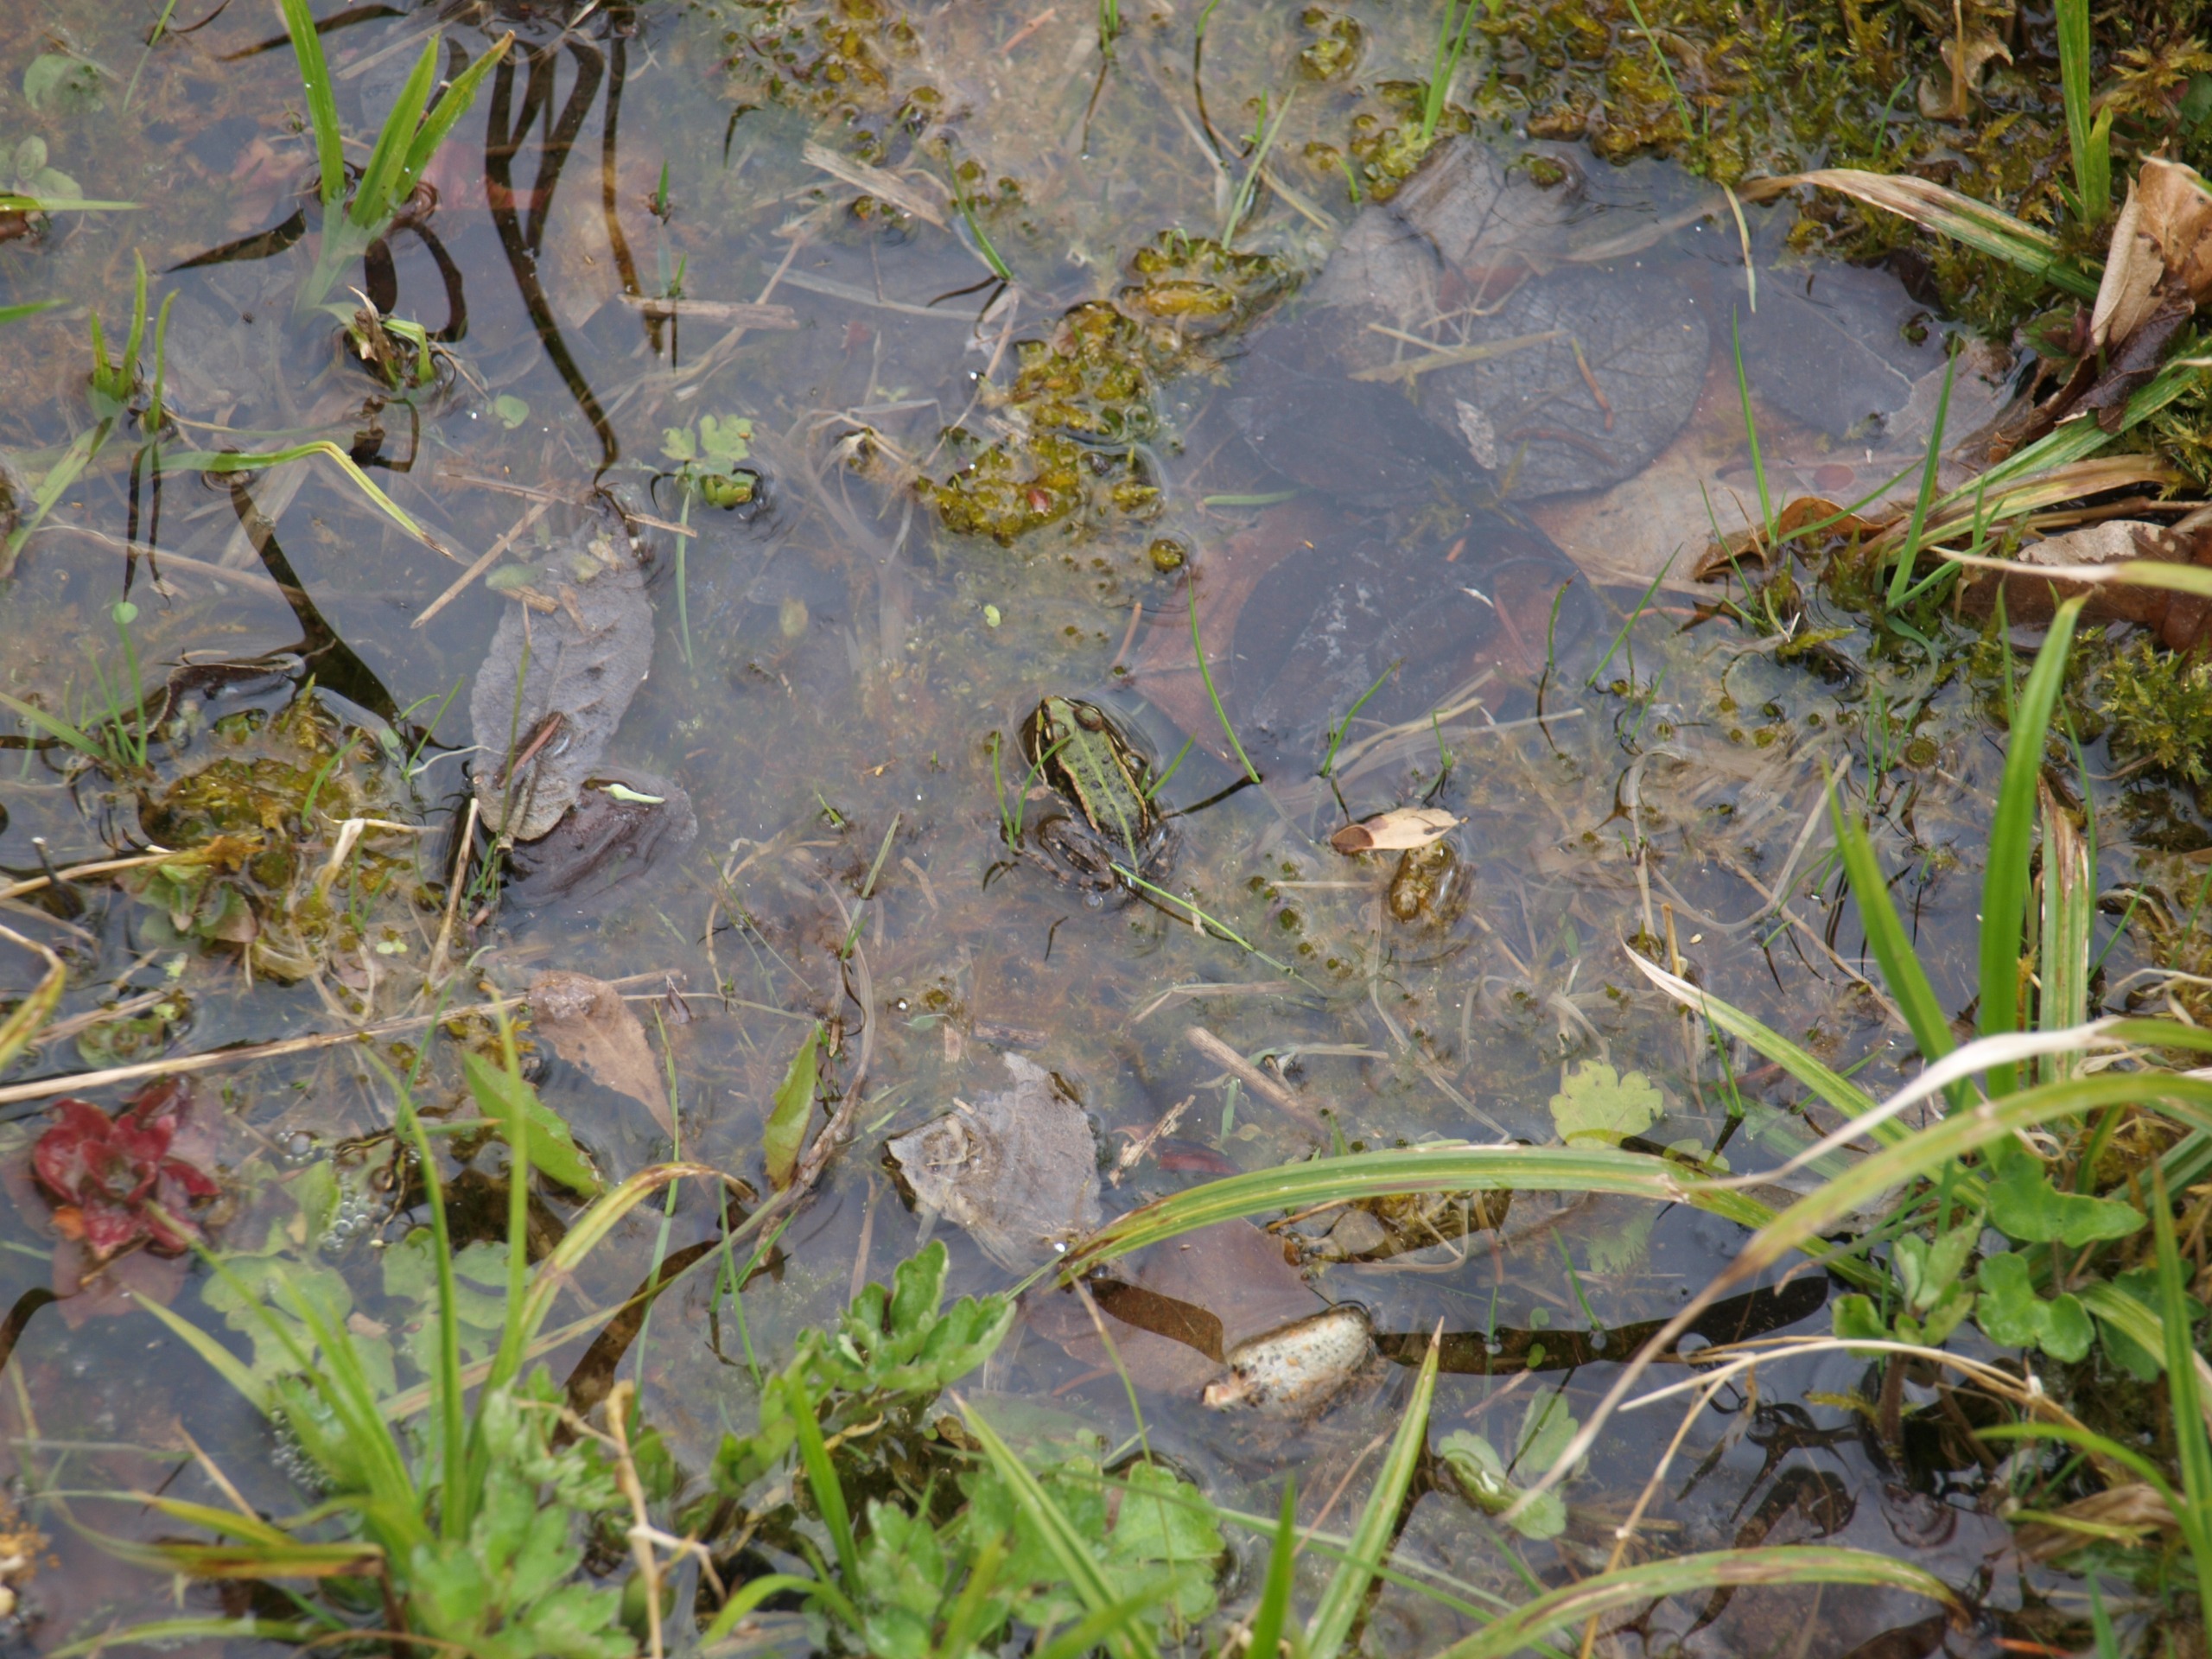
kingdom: Animalia
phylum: Chordata
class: Amphibia
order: Anura
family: Ranidae
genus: Pelophylax
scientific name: Pelophylax lessonae
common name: Grøn frø
